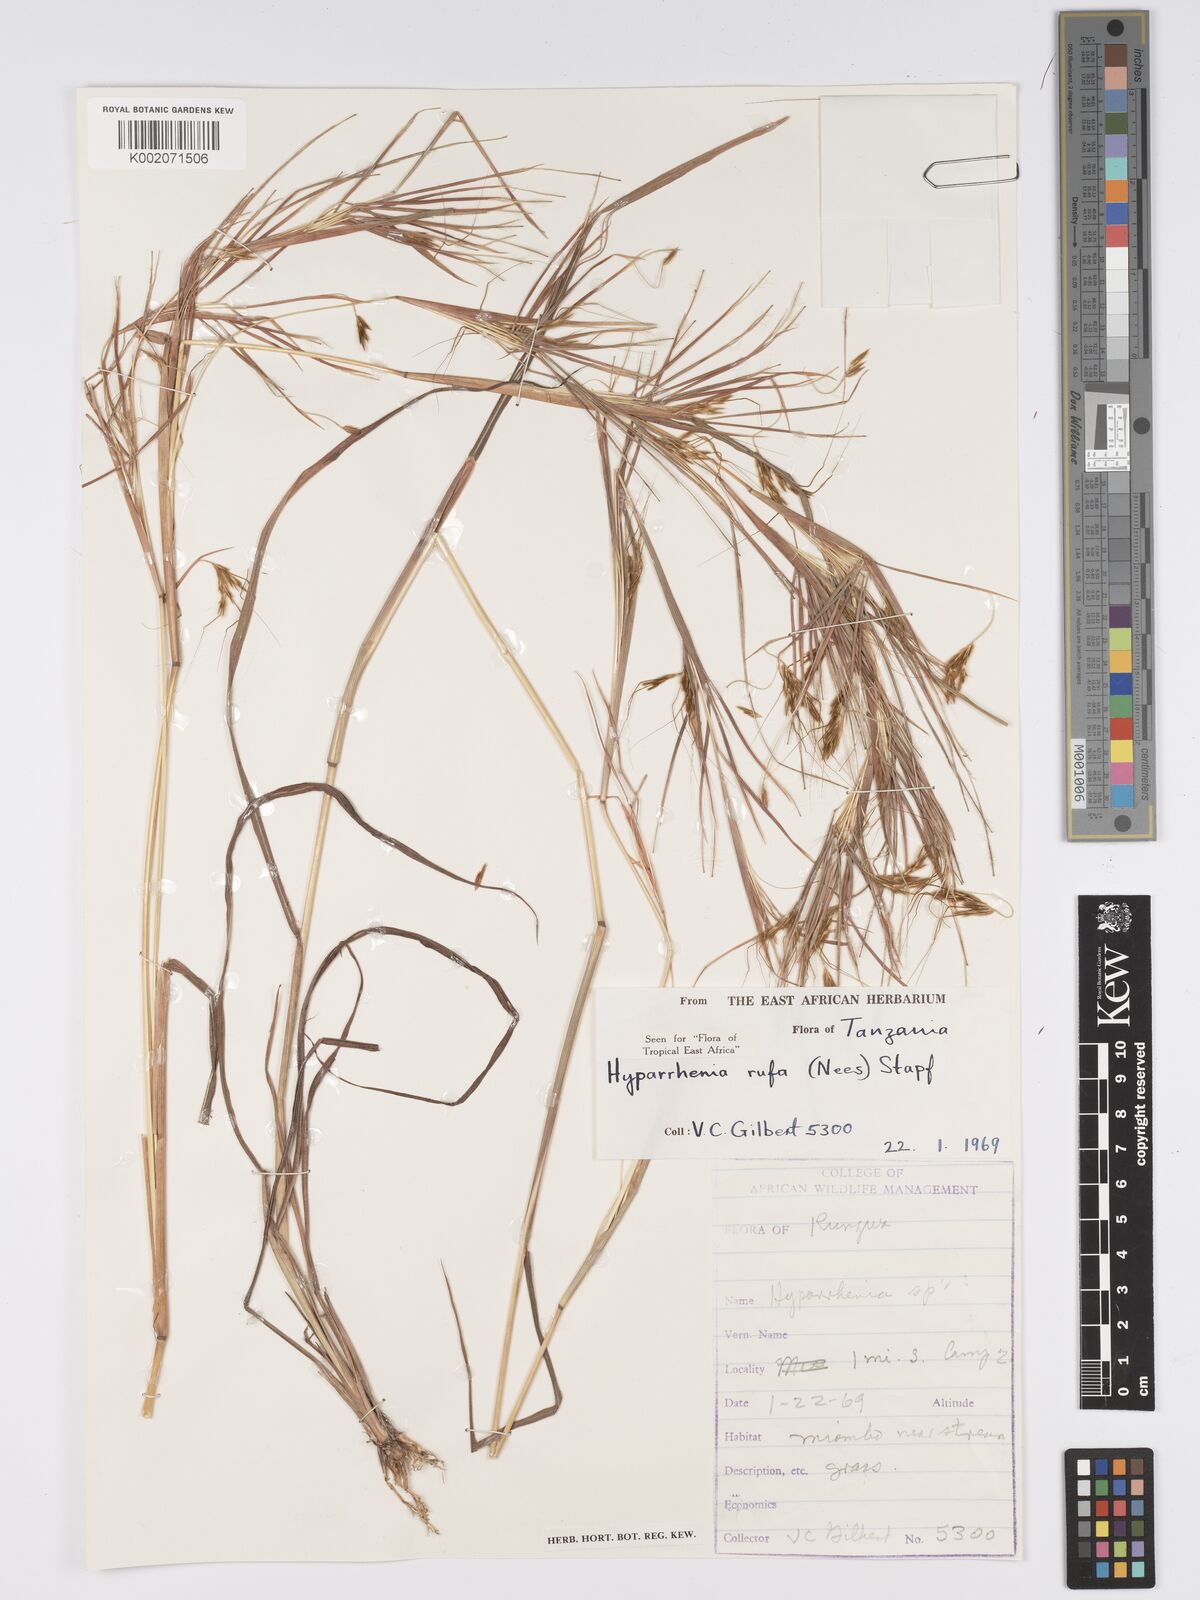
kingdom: Plantae
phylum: Tracheophyta
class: Liliopsida
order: Poales
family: Poaceae
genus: Hyparrhenia
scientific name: Hyparrhenia rufa
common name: Jaraguagrass
